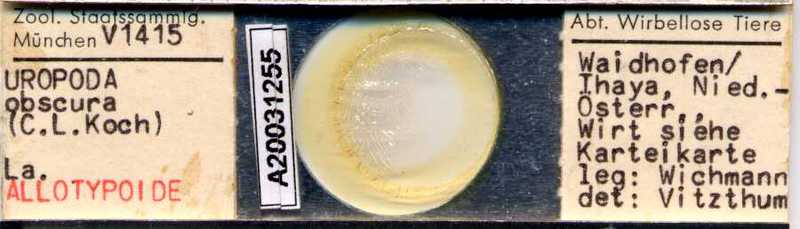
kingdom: Animalia
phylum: Arthropoda
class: Arachnida
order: Mesostigmata
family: Uropodidae
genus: Uroobovella
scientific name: Uroobovella marginata
